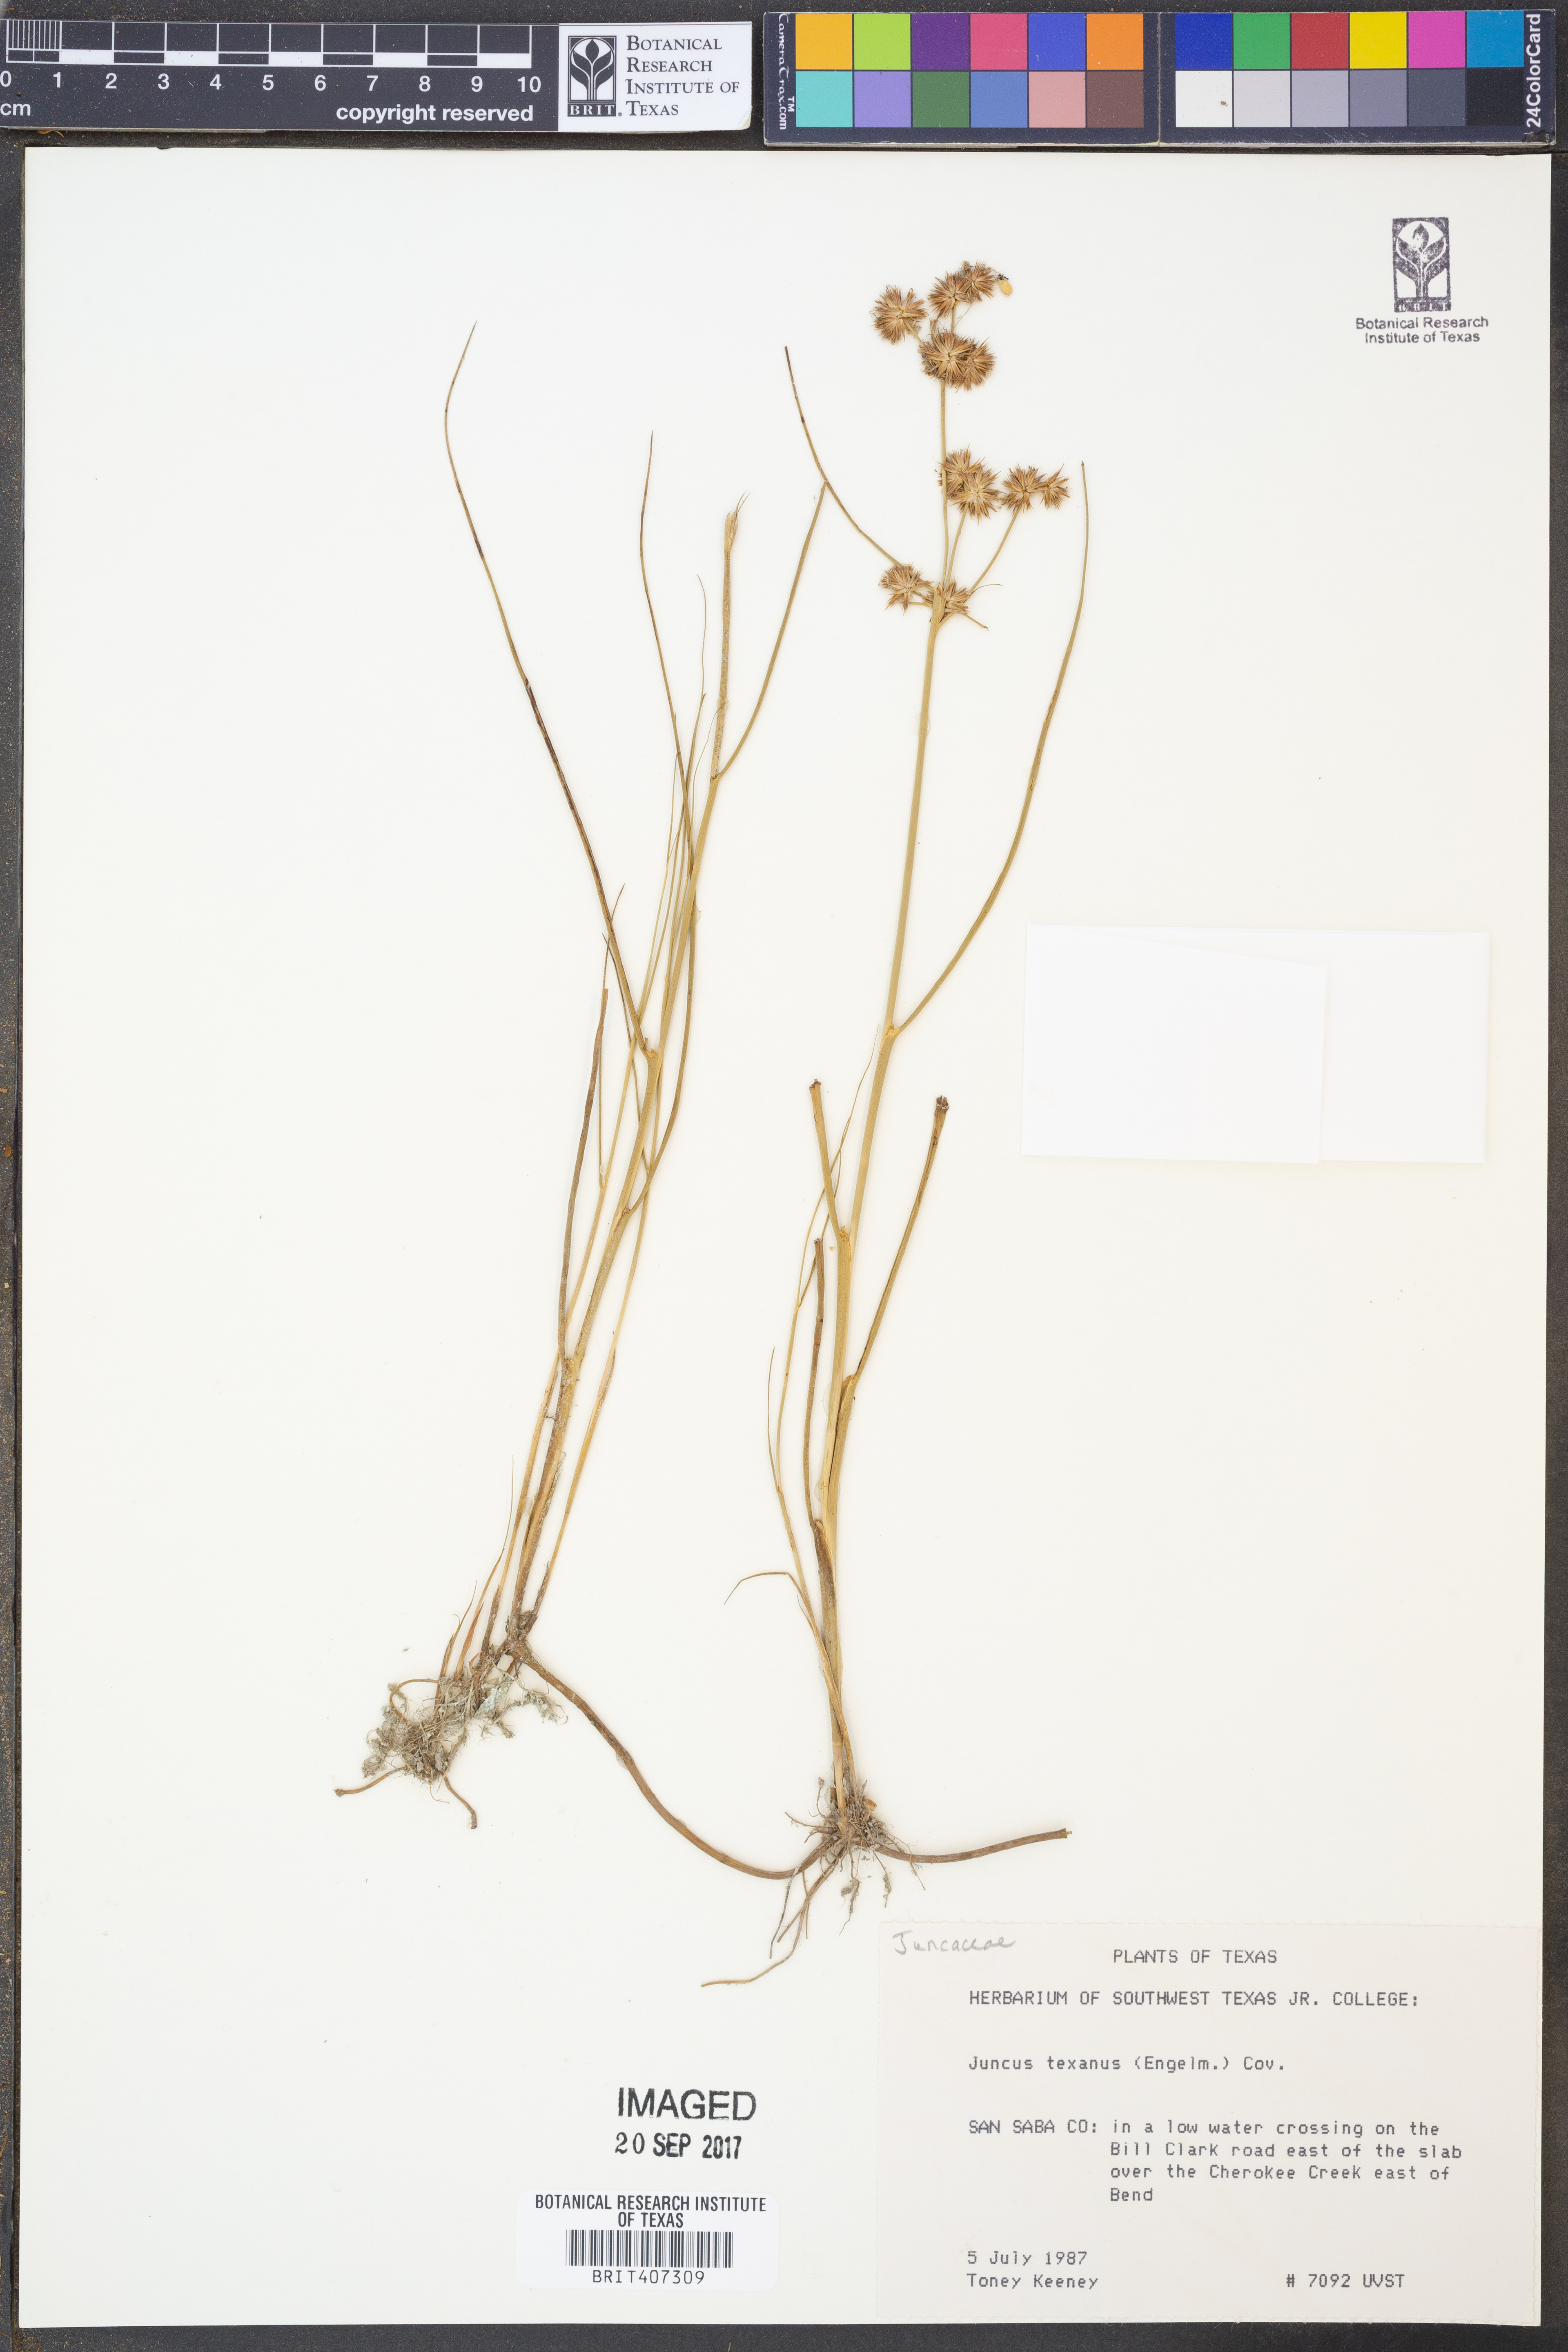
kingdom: Plantae
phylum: Tracheophyta
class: Liliopsida
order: Poales
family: Juncaceae
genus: Juncus
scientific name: Juncus texanus
